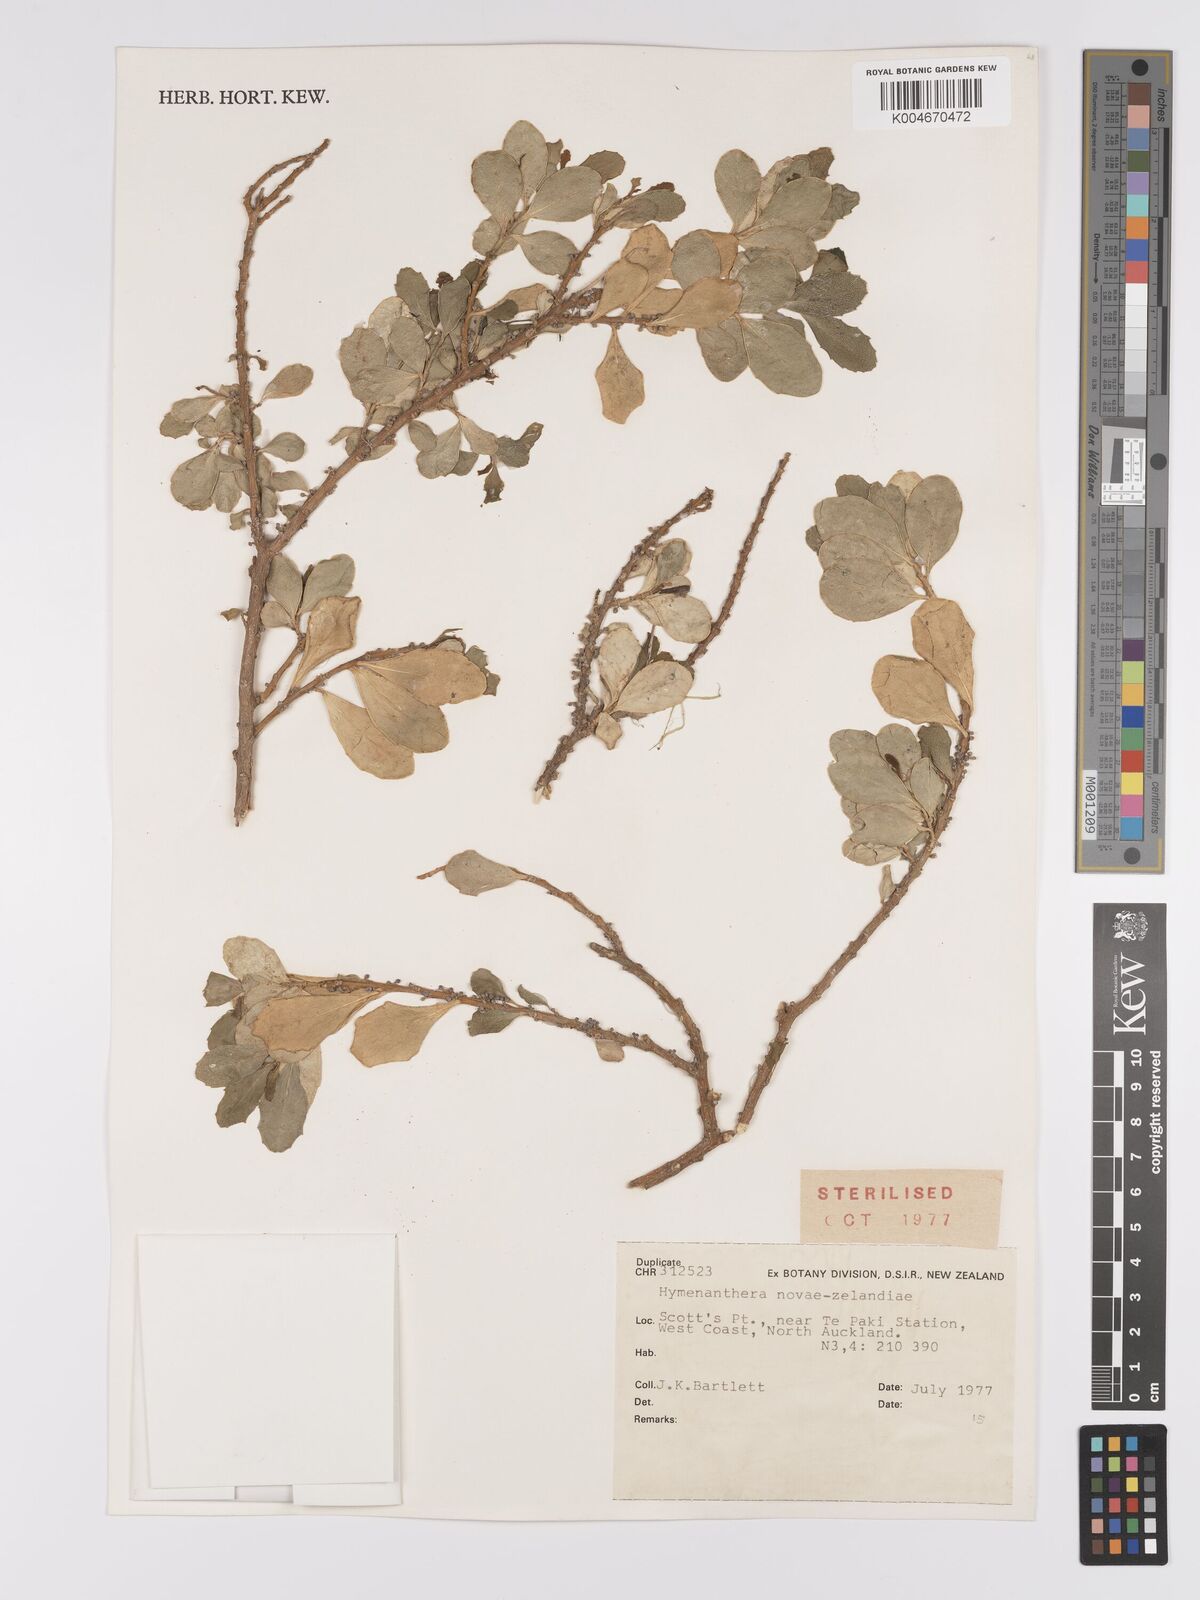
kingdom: Plantae
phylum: Tracheophyta
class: Magnoliopsida
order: Malpighiales
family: Violaceae
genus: Melicytus
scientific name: Melicytus novae-zelandiae
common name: Coastal mahoe
